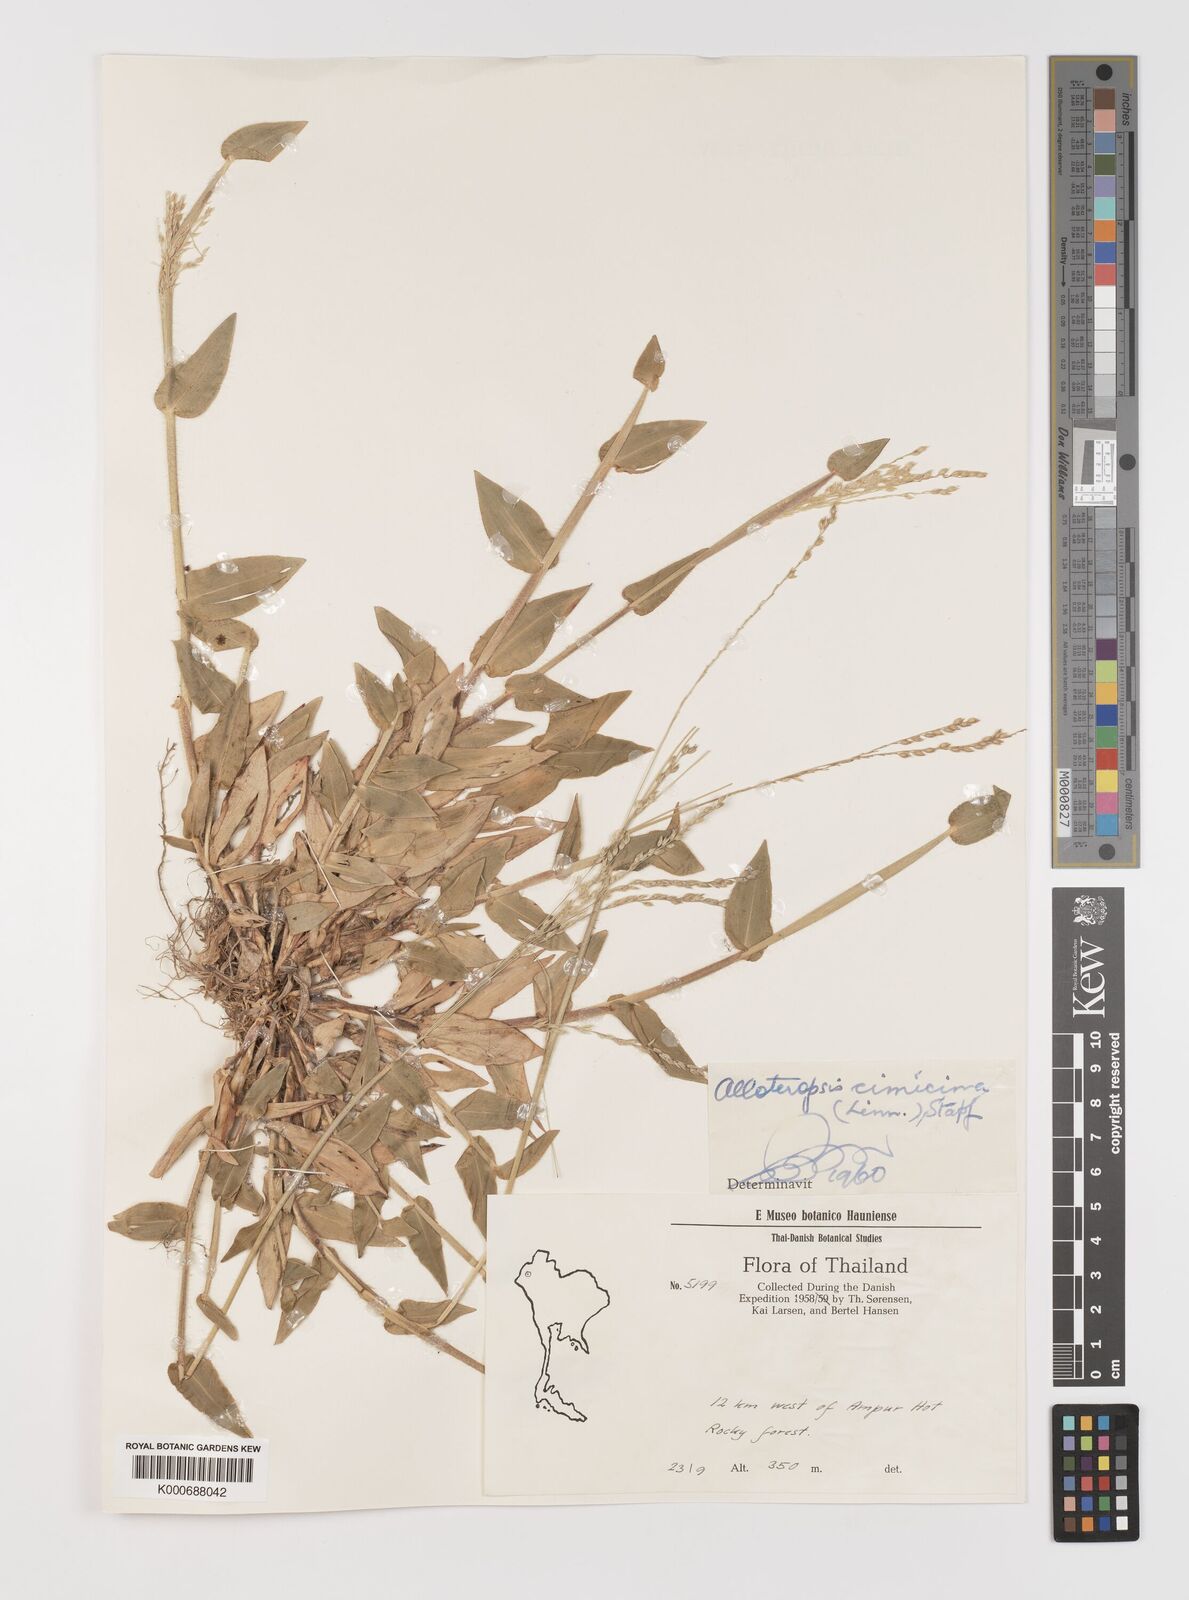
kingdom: Plantae
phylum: Tracheophyta
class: Liliopsida
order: Poales
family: Poaceae
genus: Alloteropsis
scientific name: Alloteropsis cimicina
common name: Summergrass
